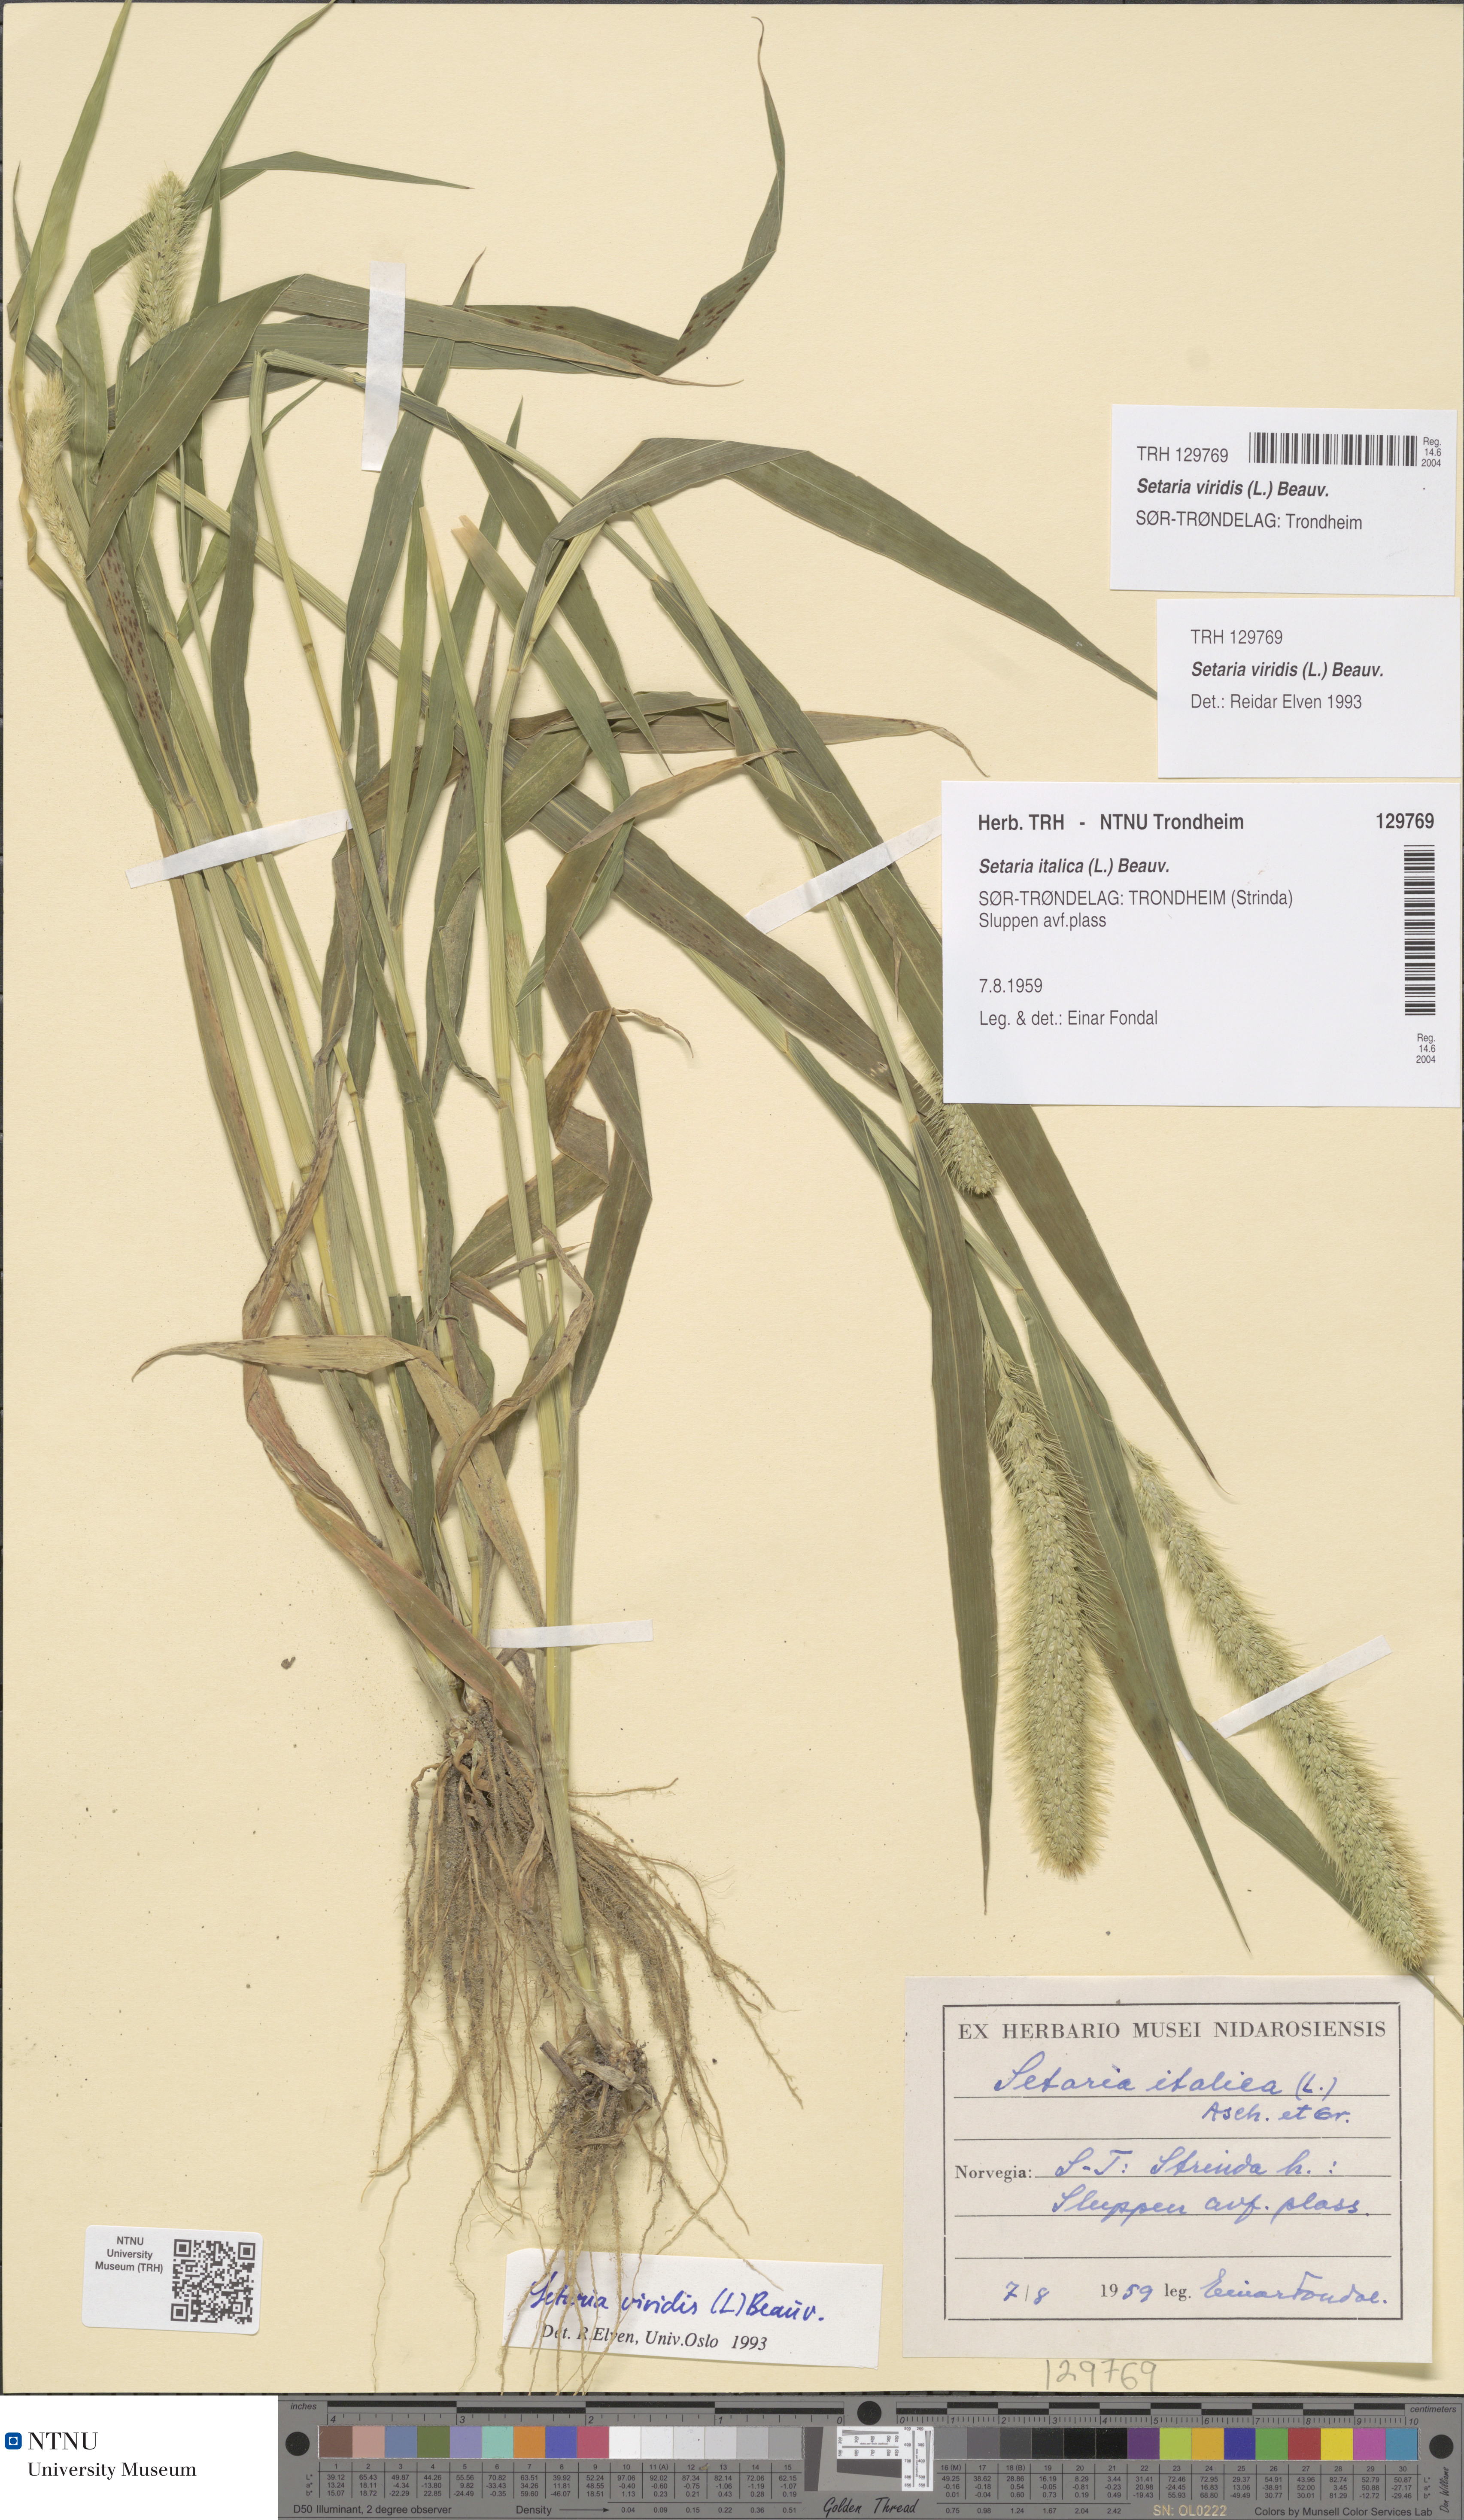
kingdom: Plantae
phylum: Tracheophyta
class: Liliopsida
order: Poales
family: Poaceae
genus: Setaria
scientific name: Setaria viridis
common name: Green bristlegrass
